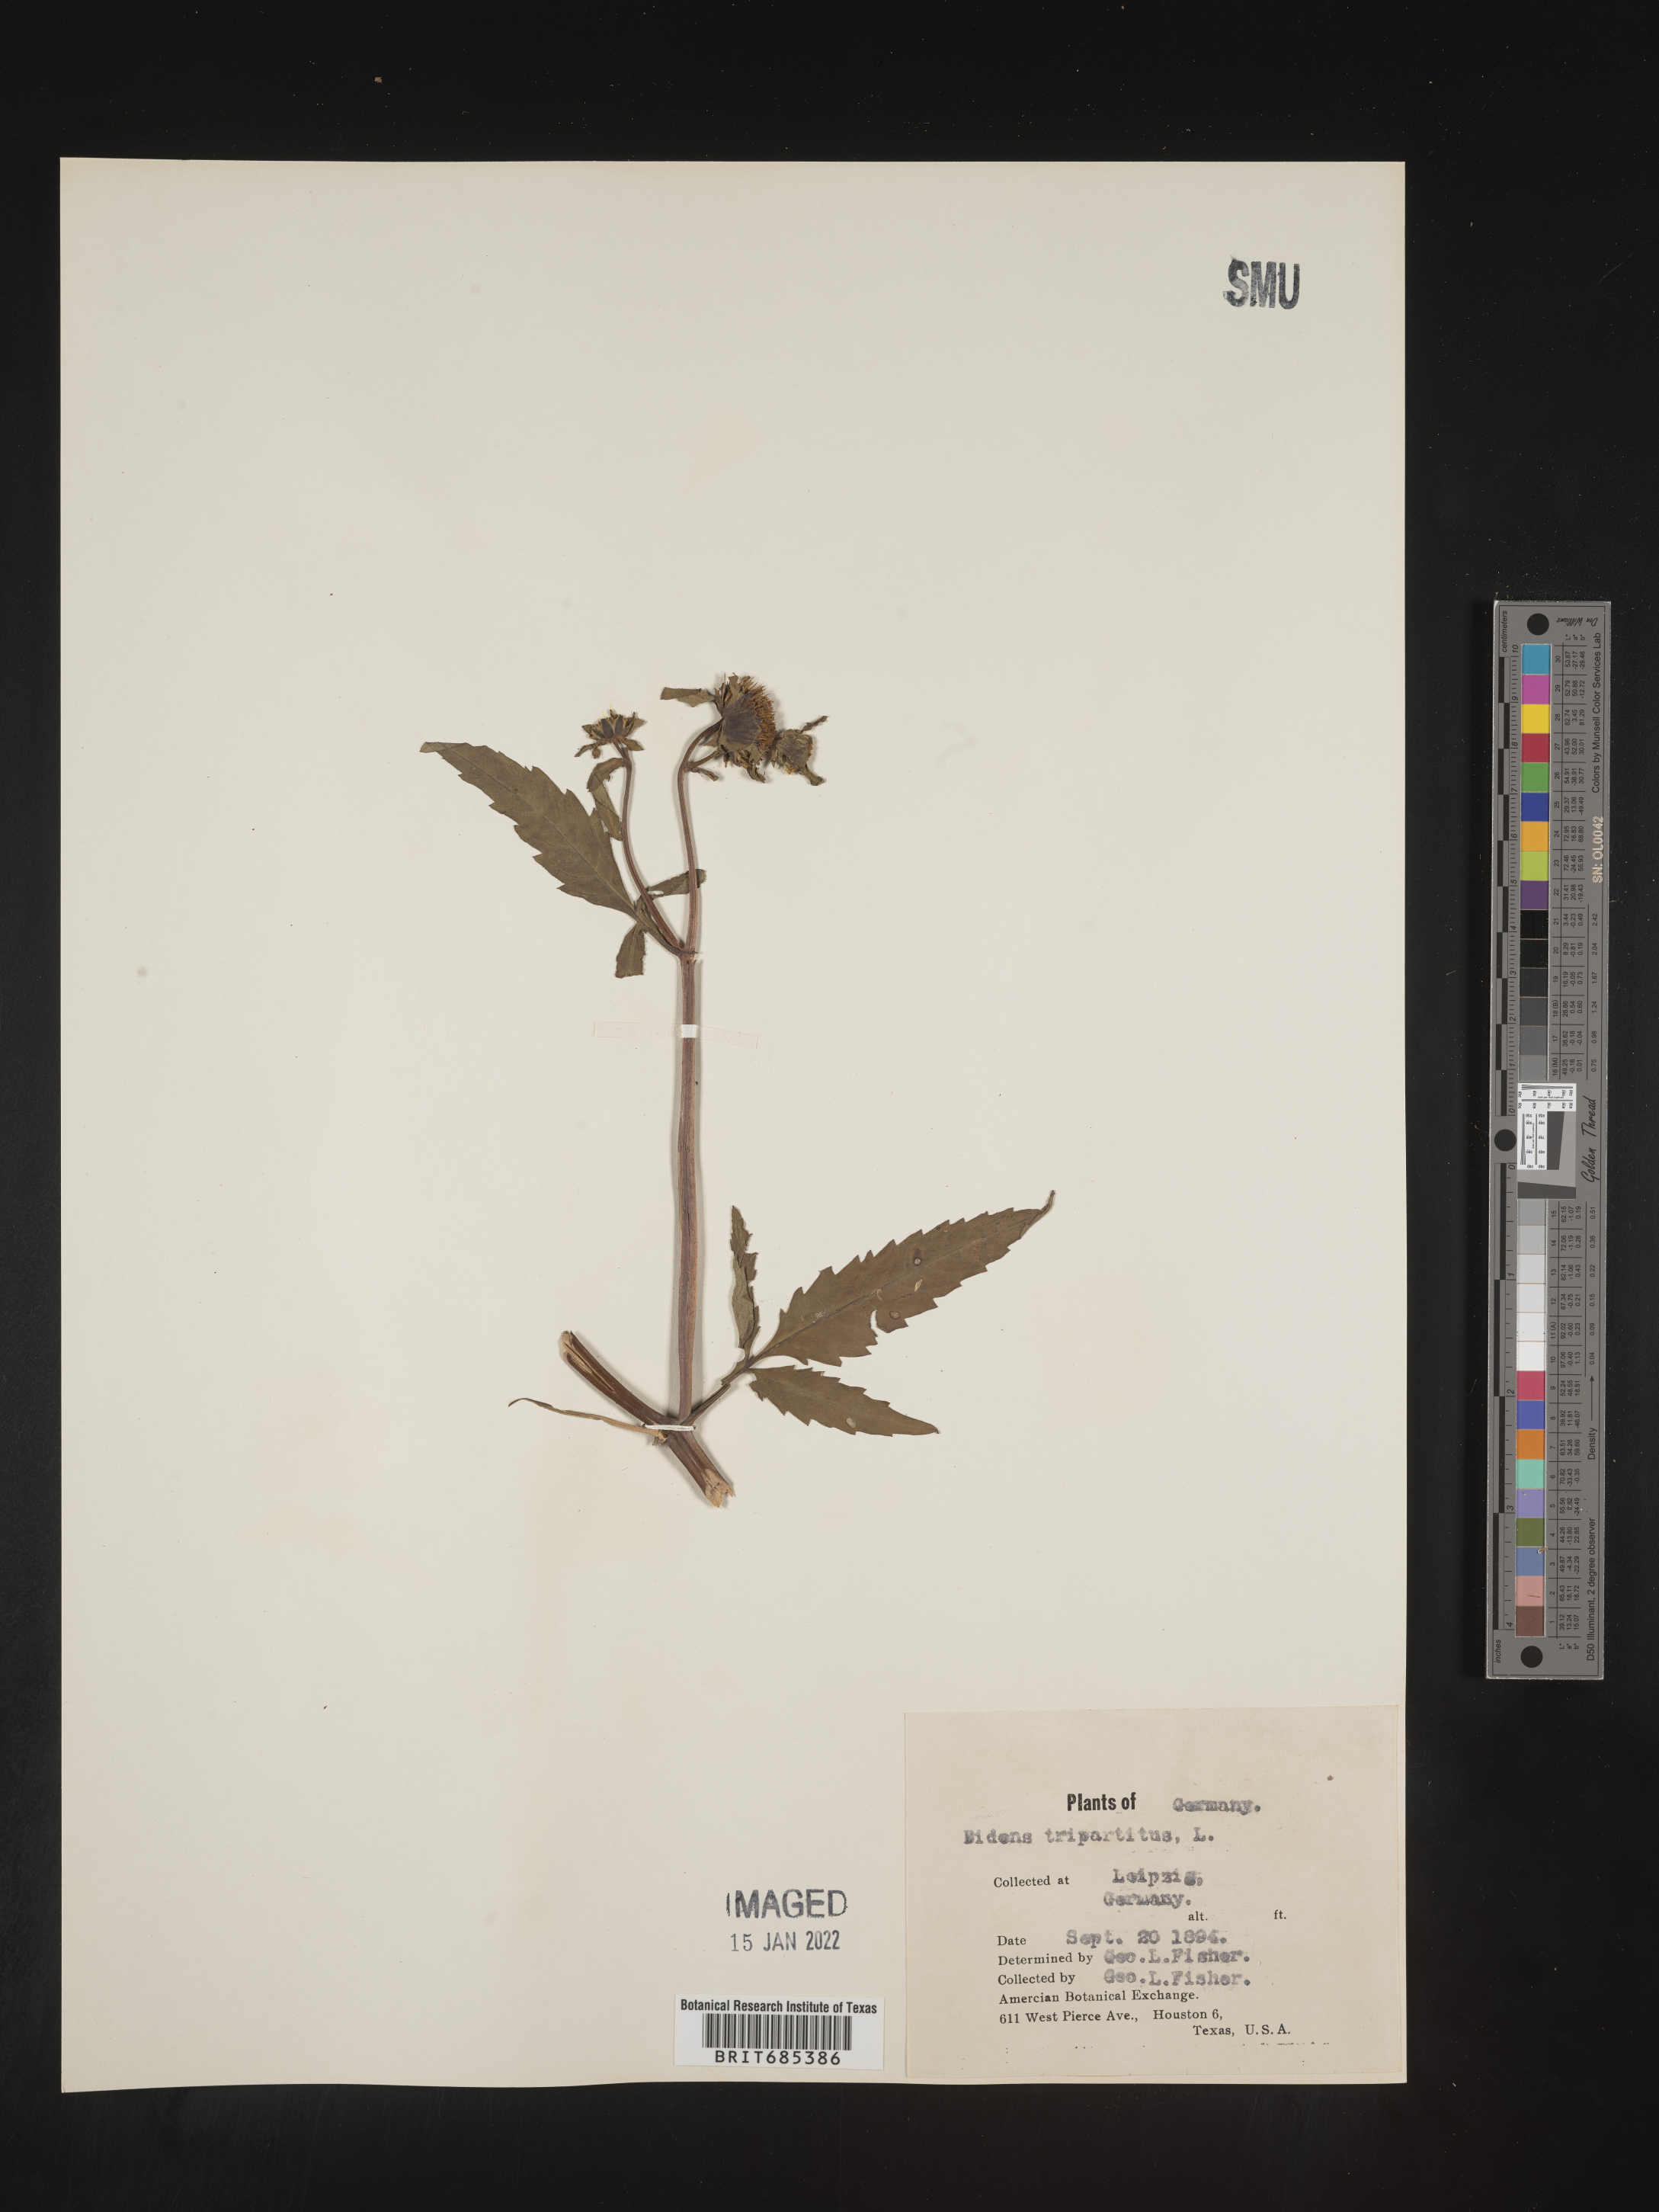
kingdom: Plantae
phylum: Tracheophyta
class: Magnoliopsida
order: Asterales
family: Asteraceae
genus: Bidens
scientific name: Bidens
